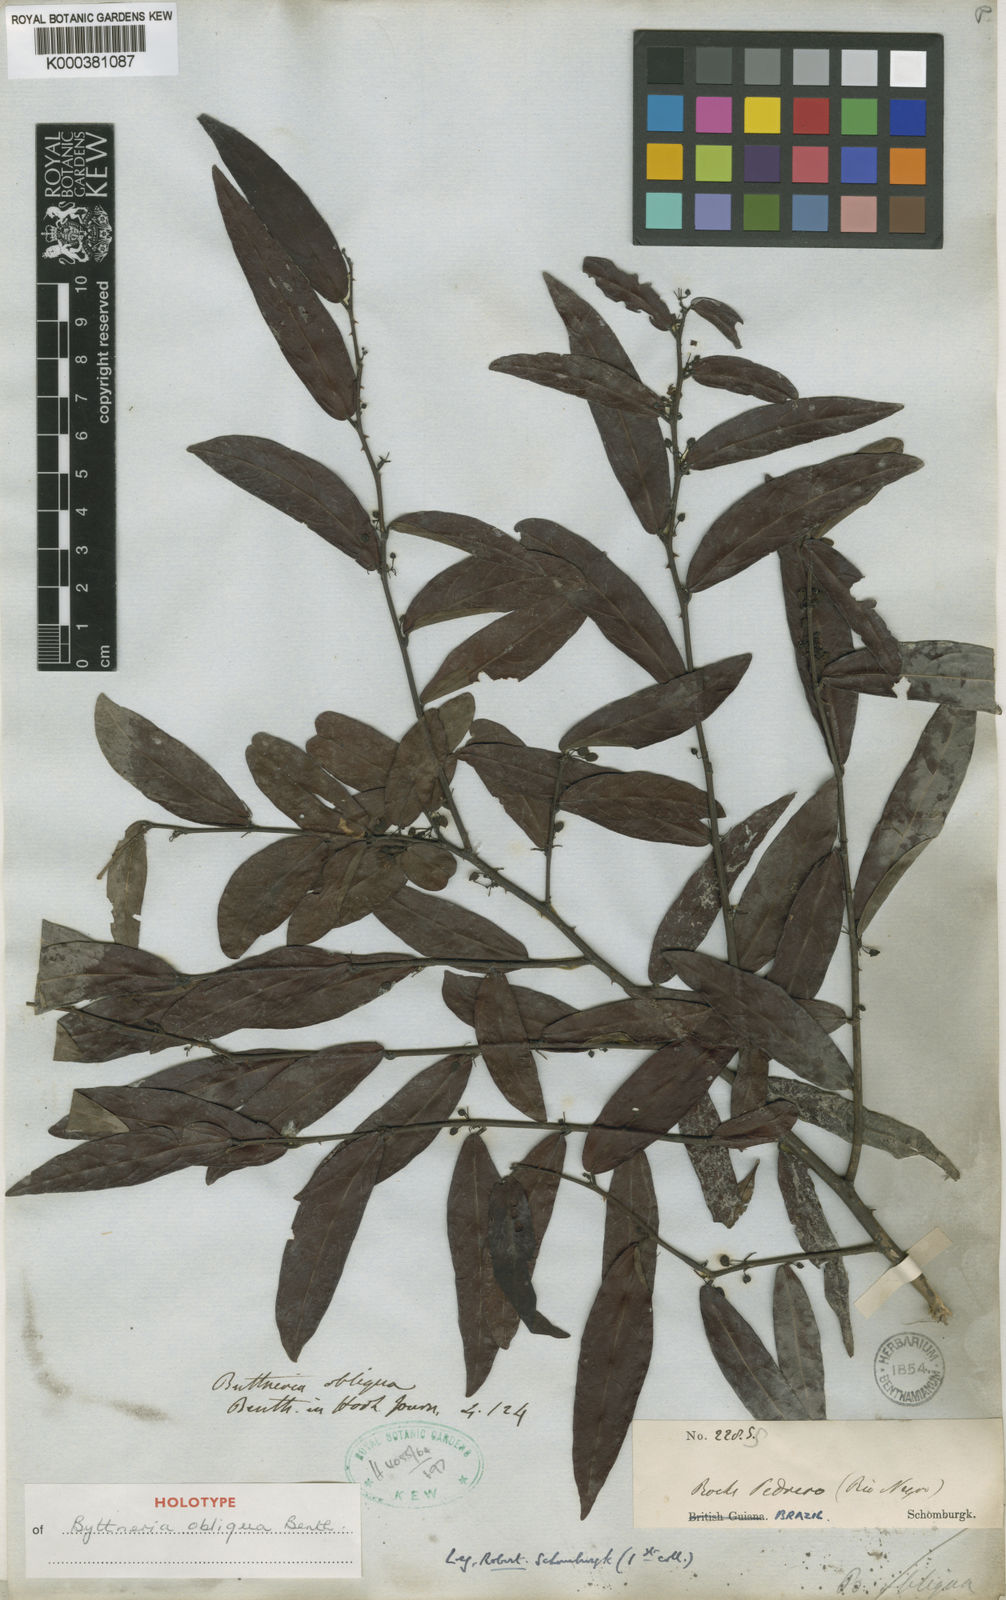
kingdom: Plantae
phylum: Tracheophyta
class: Magnoliopsida
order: Malvales
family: Malvaceae
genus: Byttneria
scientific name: Byttneria obliqua
